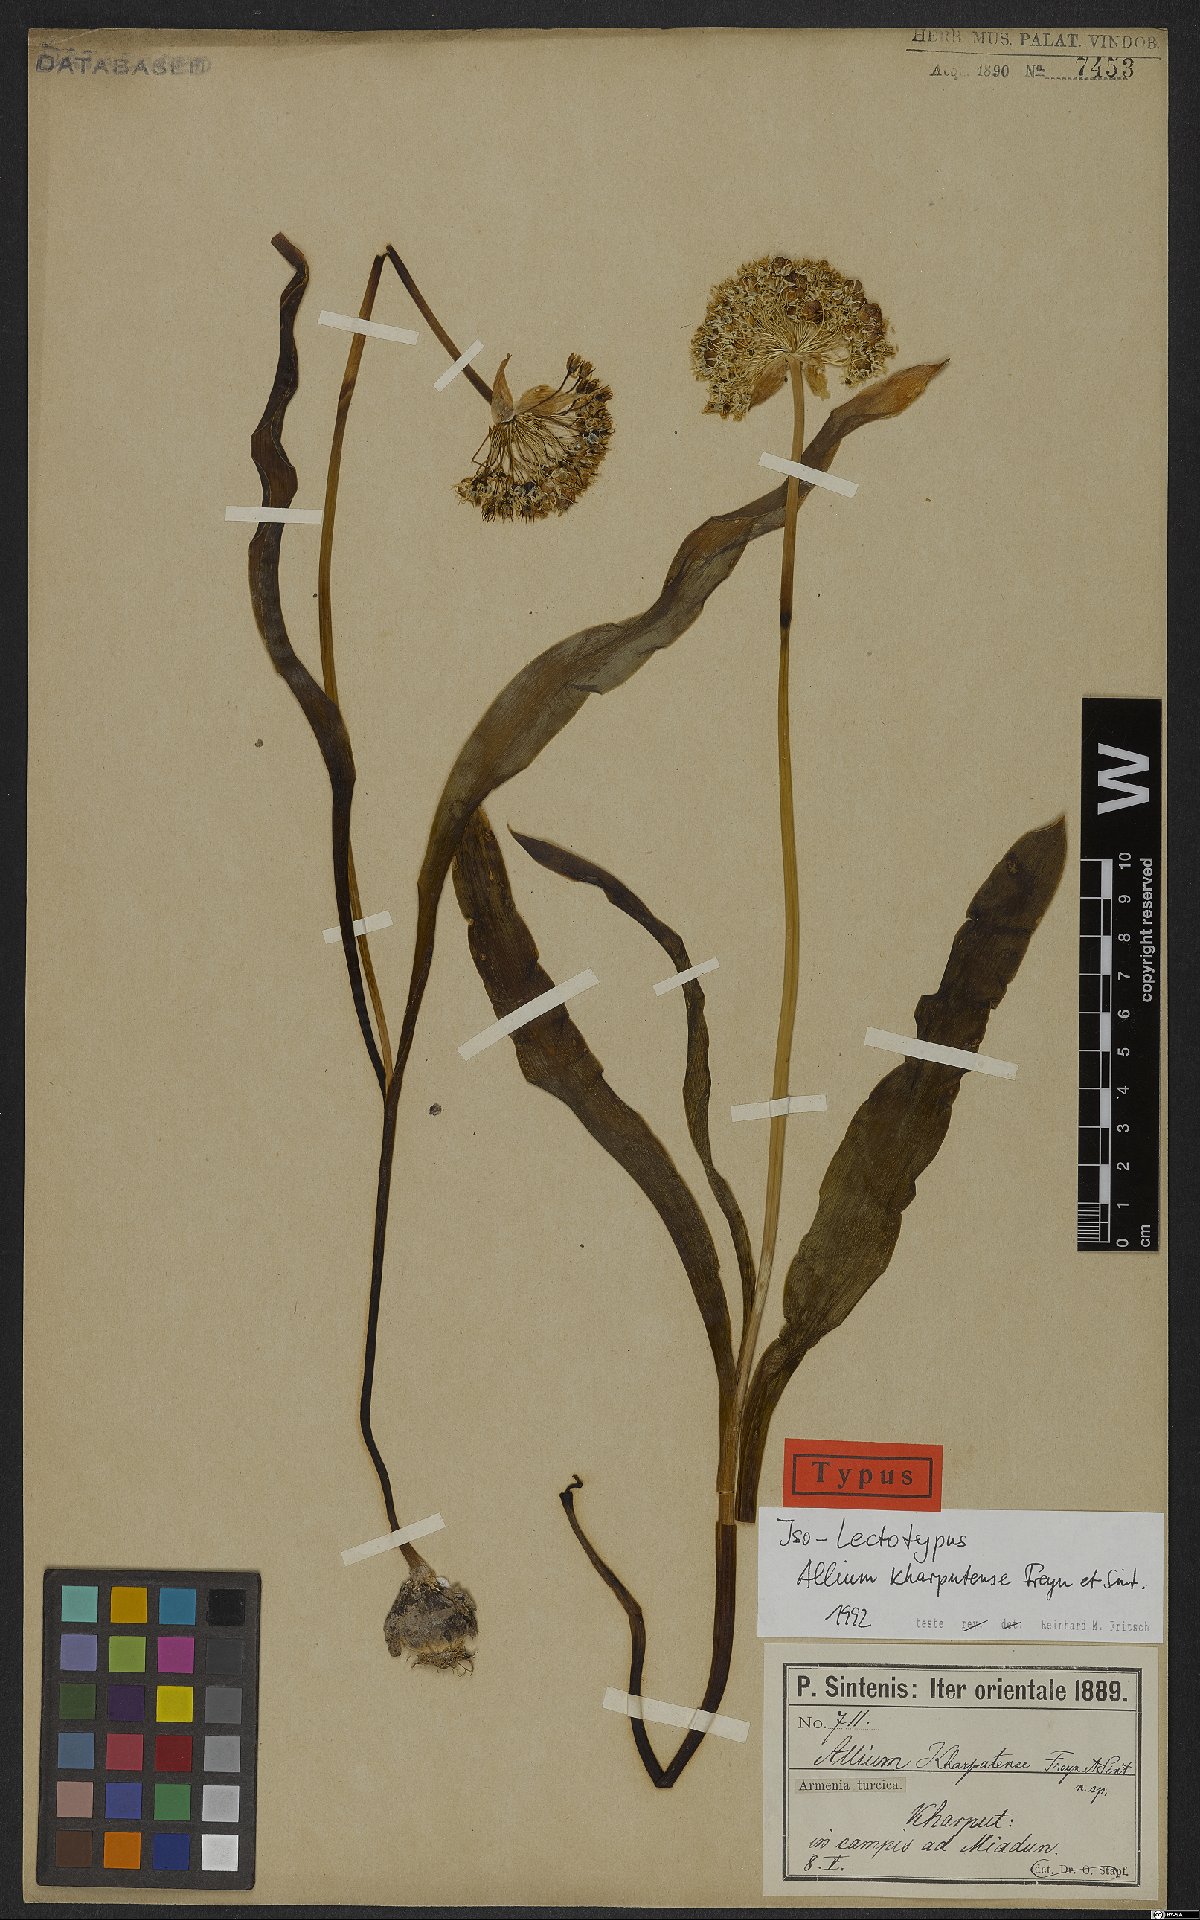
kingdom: Plantae
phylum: Tracheophyta
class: Liliopsida
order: Asparagales
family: Amaryllidaceae
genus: Allium
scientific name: Allium kharputense
